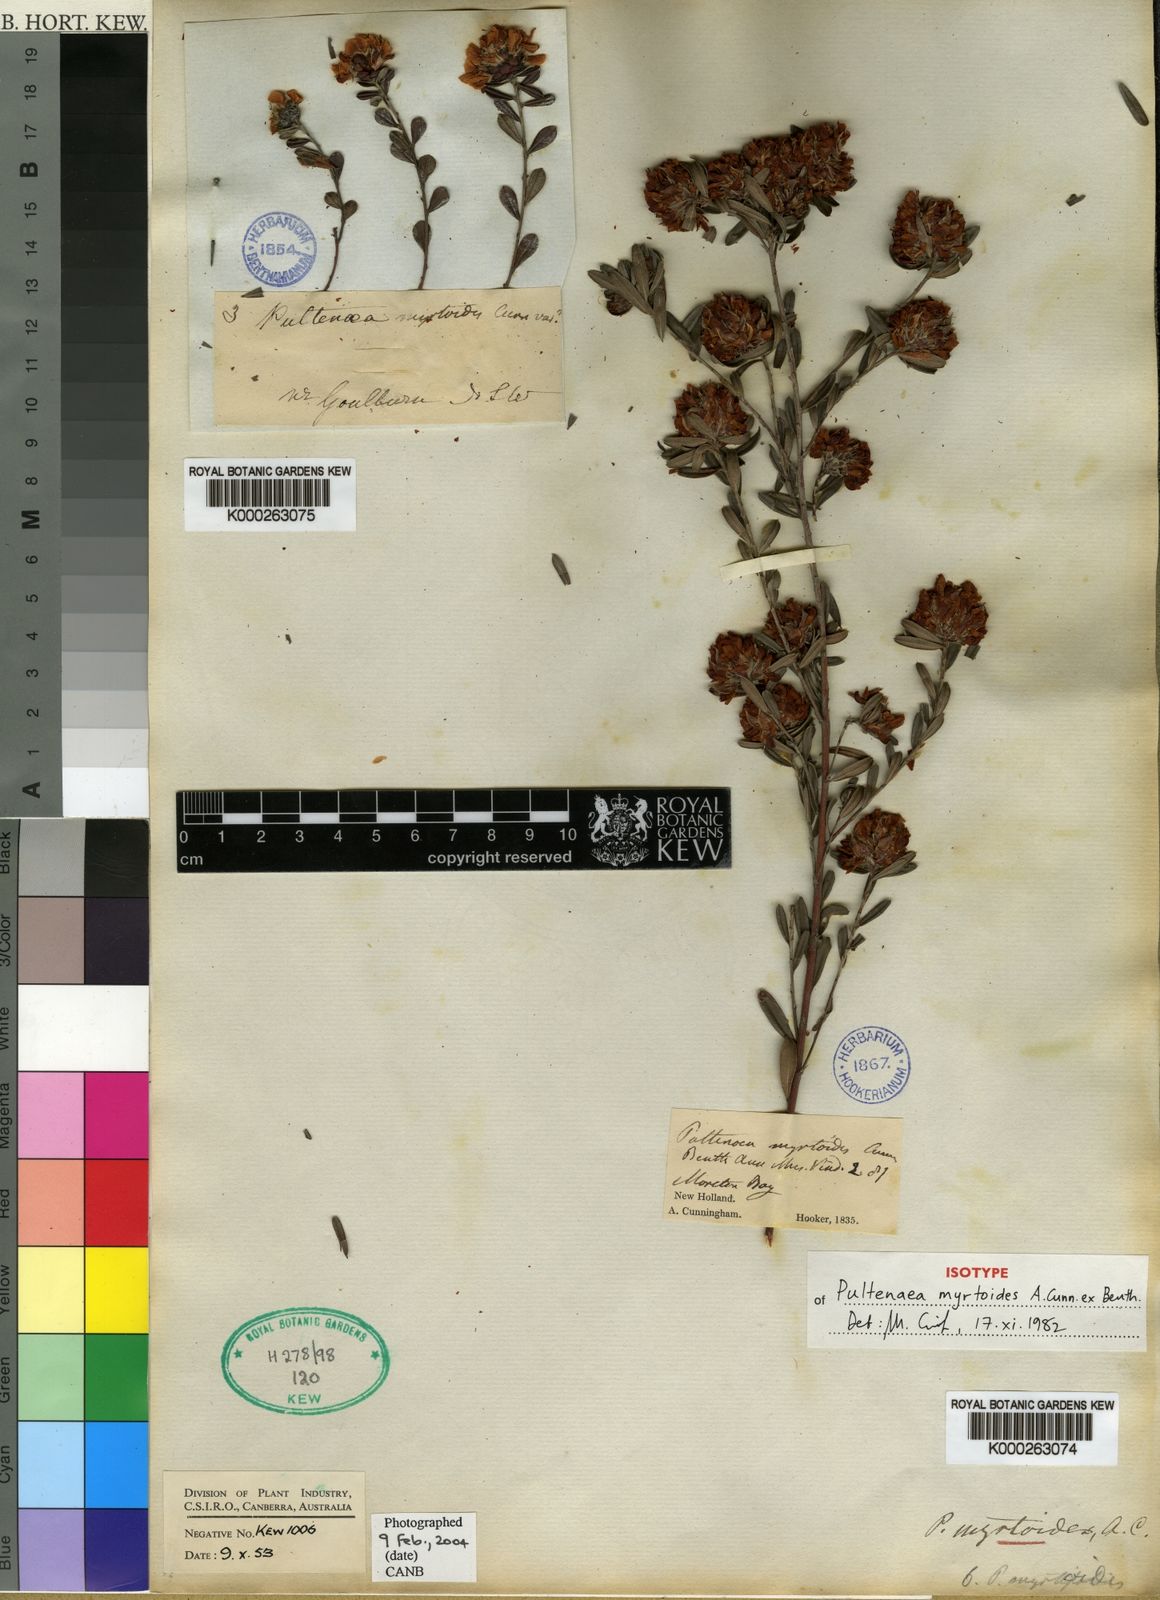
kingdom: Plantae
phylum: Tracheophyta
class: Magnoliopsida
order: Fabales
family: Fabaceae
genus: Pultenaea
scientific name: Pultenaea myrtoides
